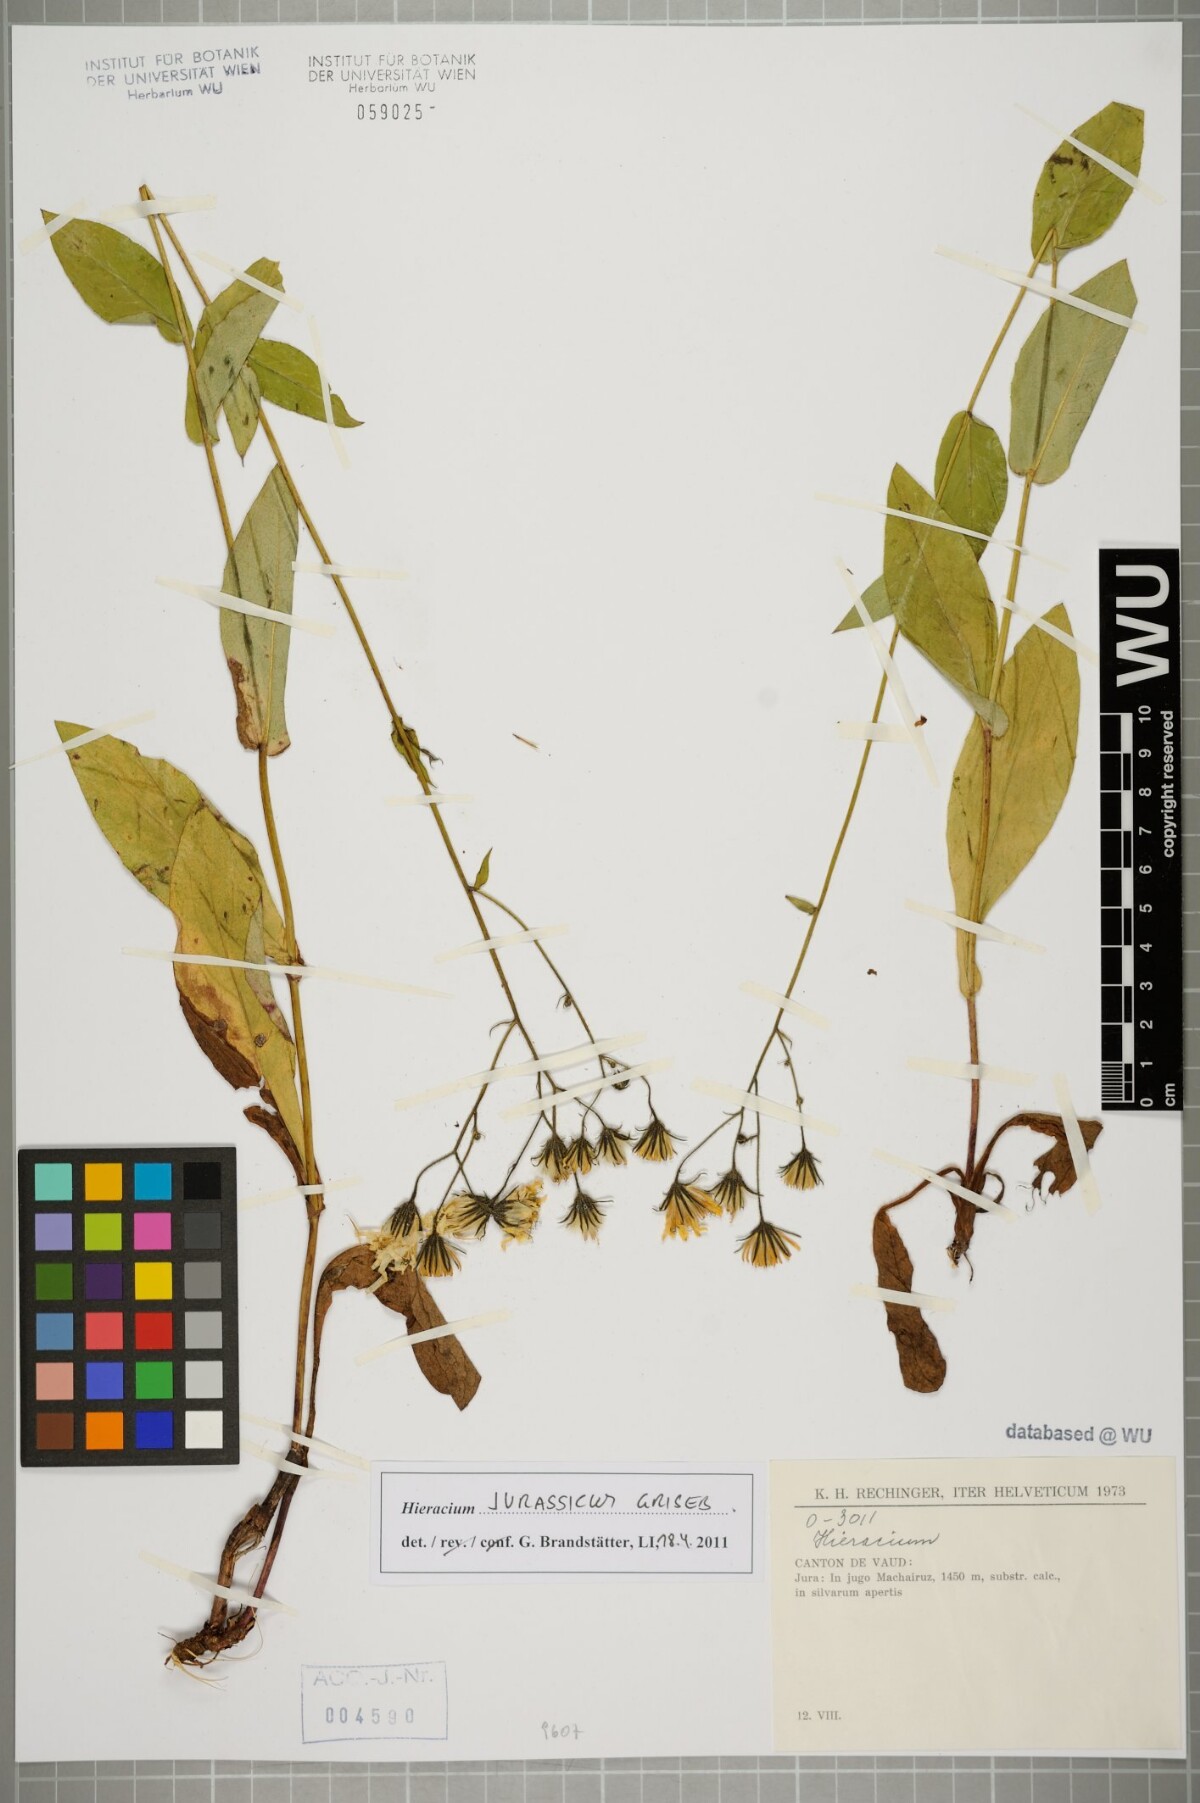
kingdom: Plantae
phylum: Tracheophyta
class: Magnoliopsida
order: Asterales
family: Asteraceae
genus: Hieracium
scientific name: Hieracium jurassicum
